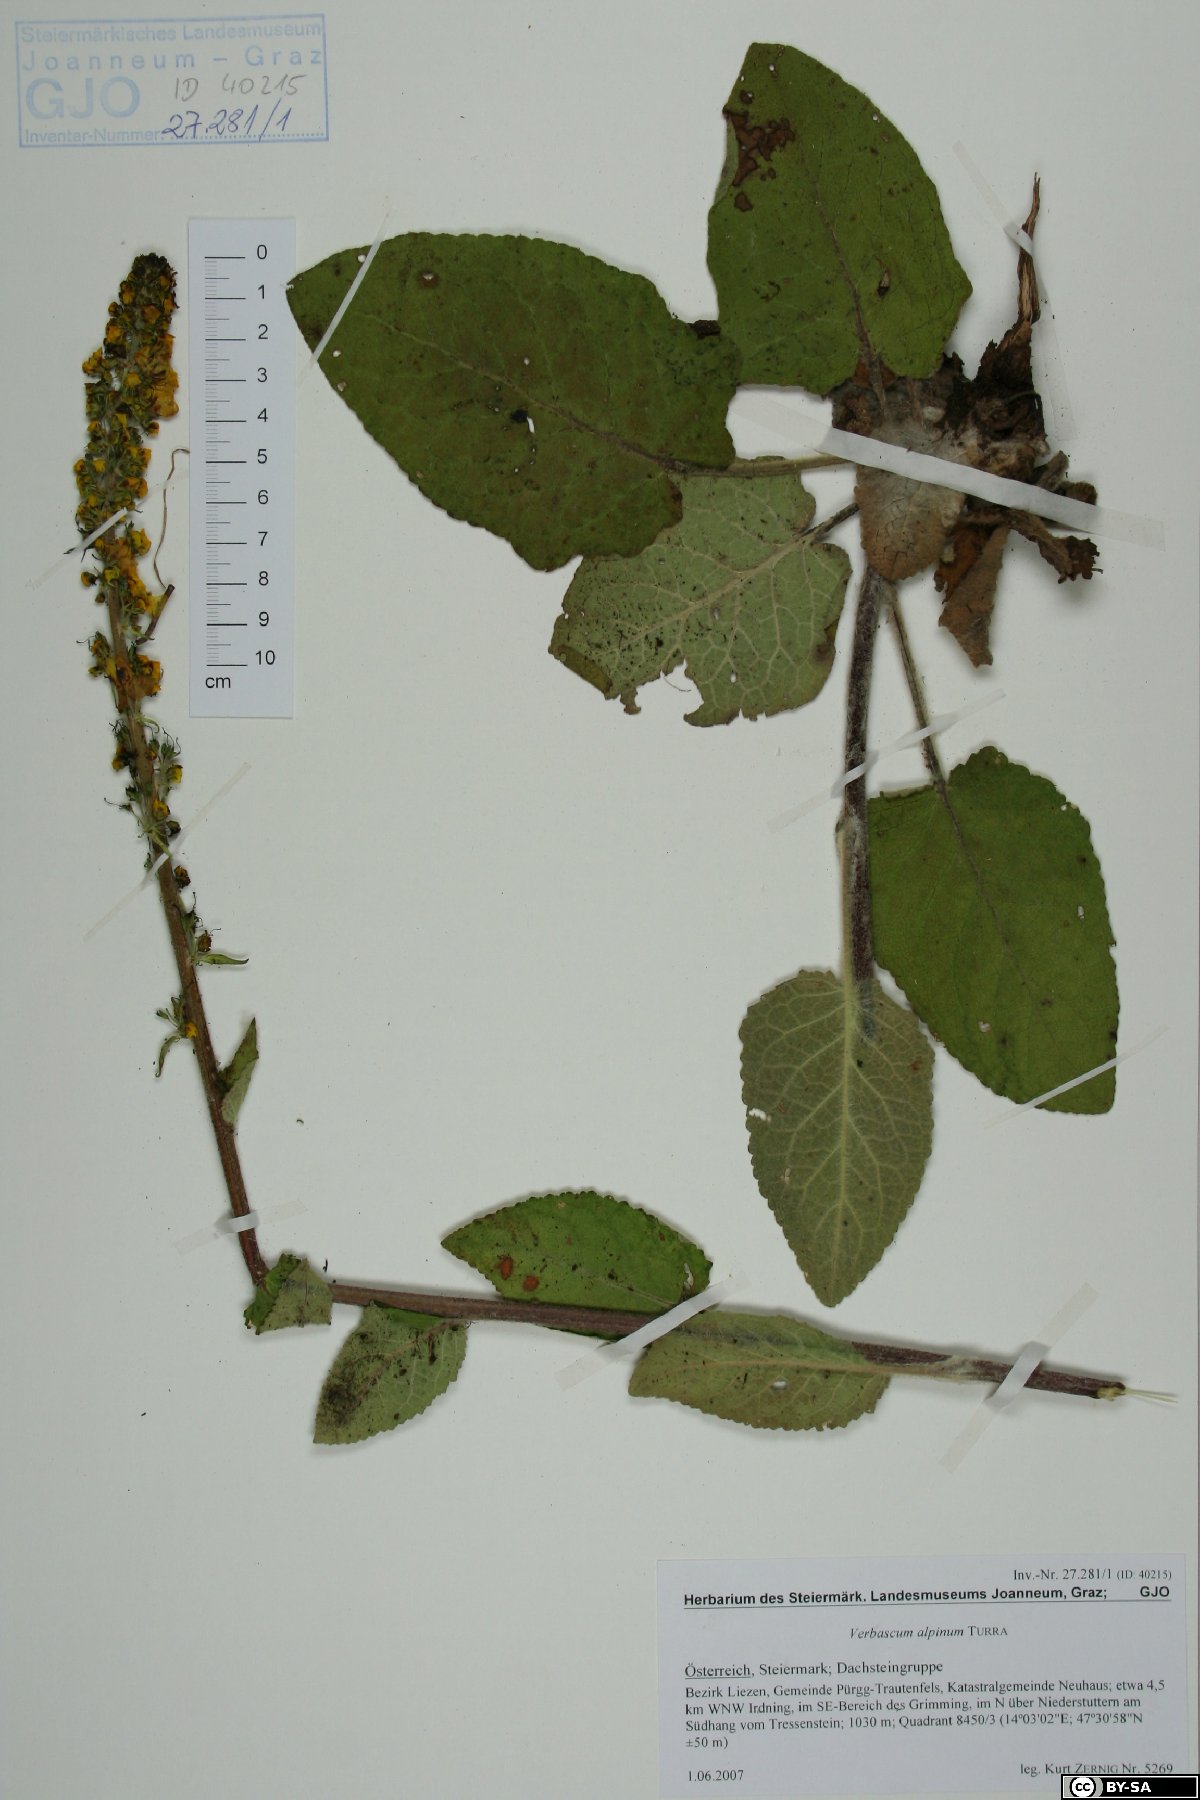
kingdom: Plantae
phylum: Tracheophyta
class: Magnoliopsida
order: Lamiales
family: Scrophulariaceae
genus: Verbascum
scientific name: Verbascum alpinum
